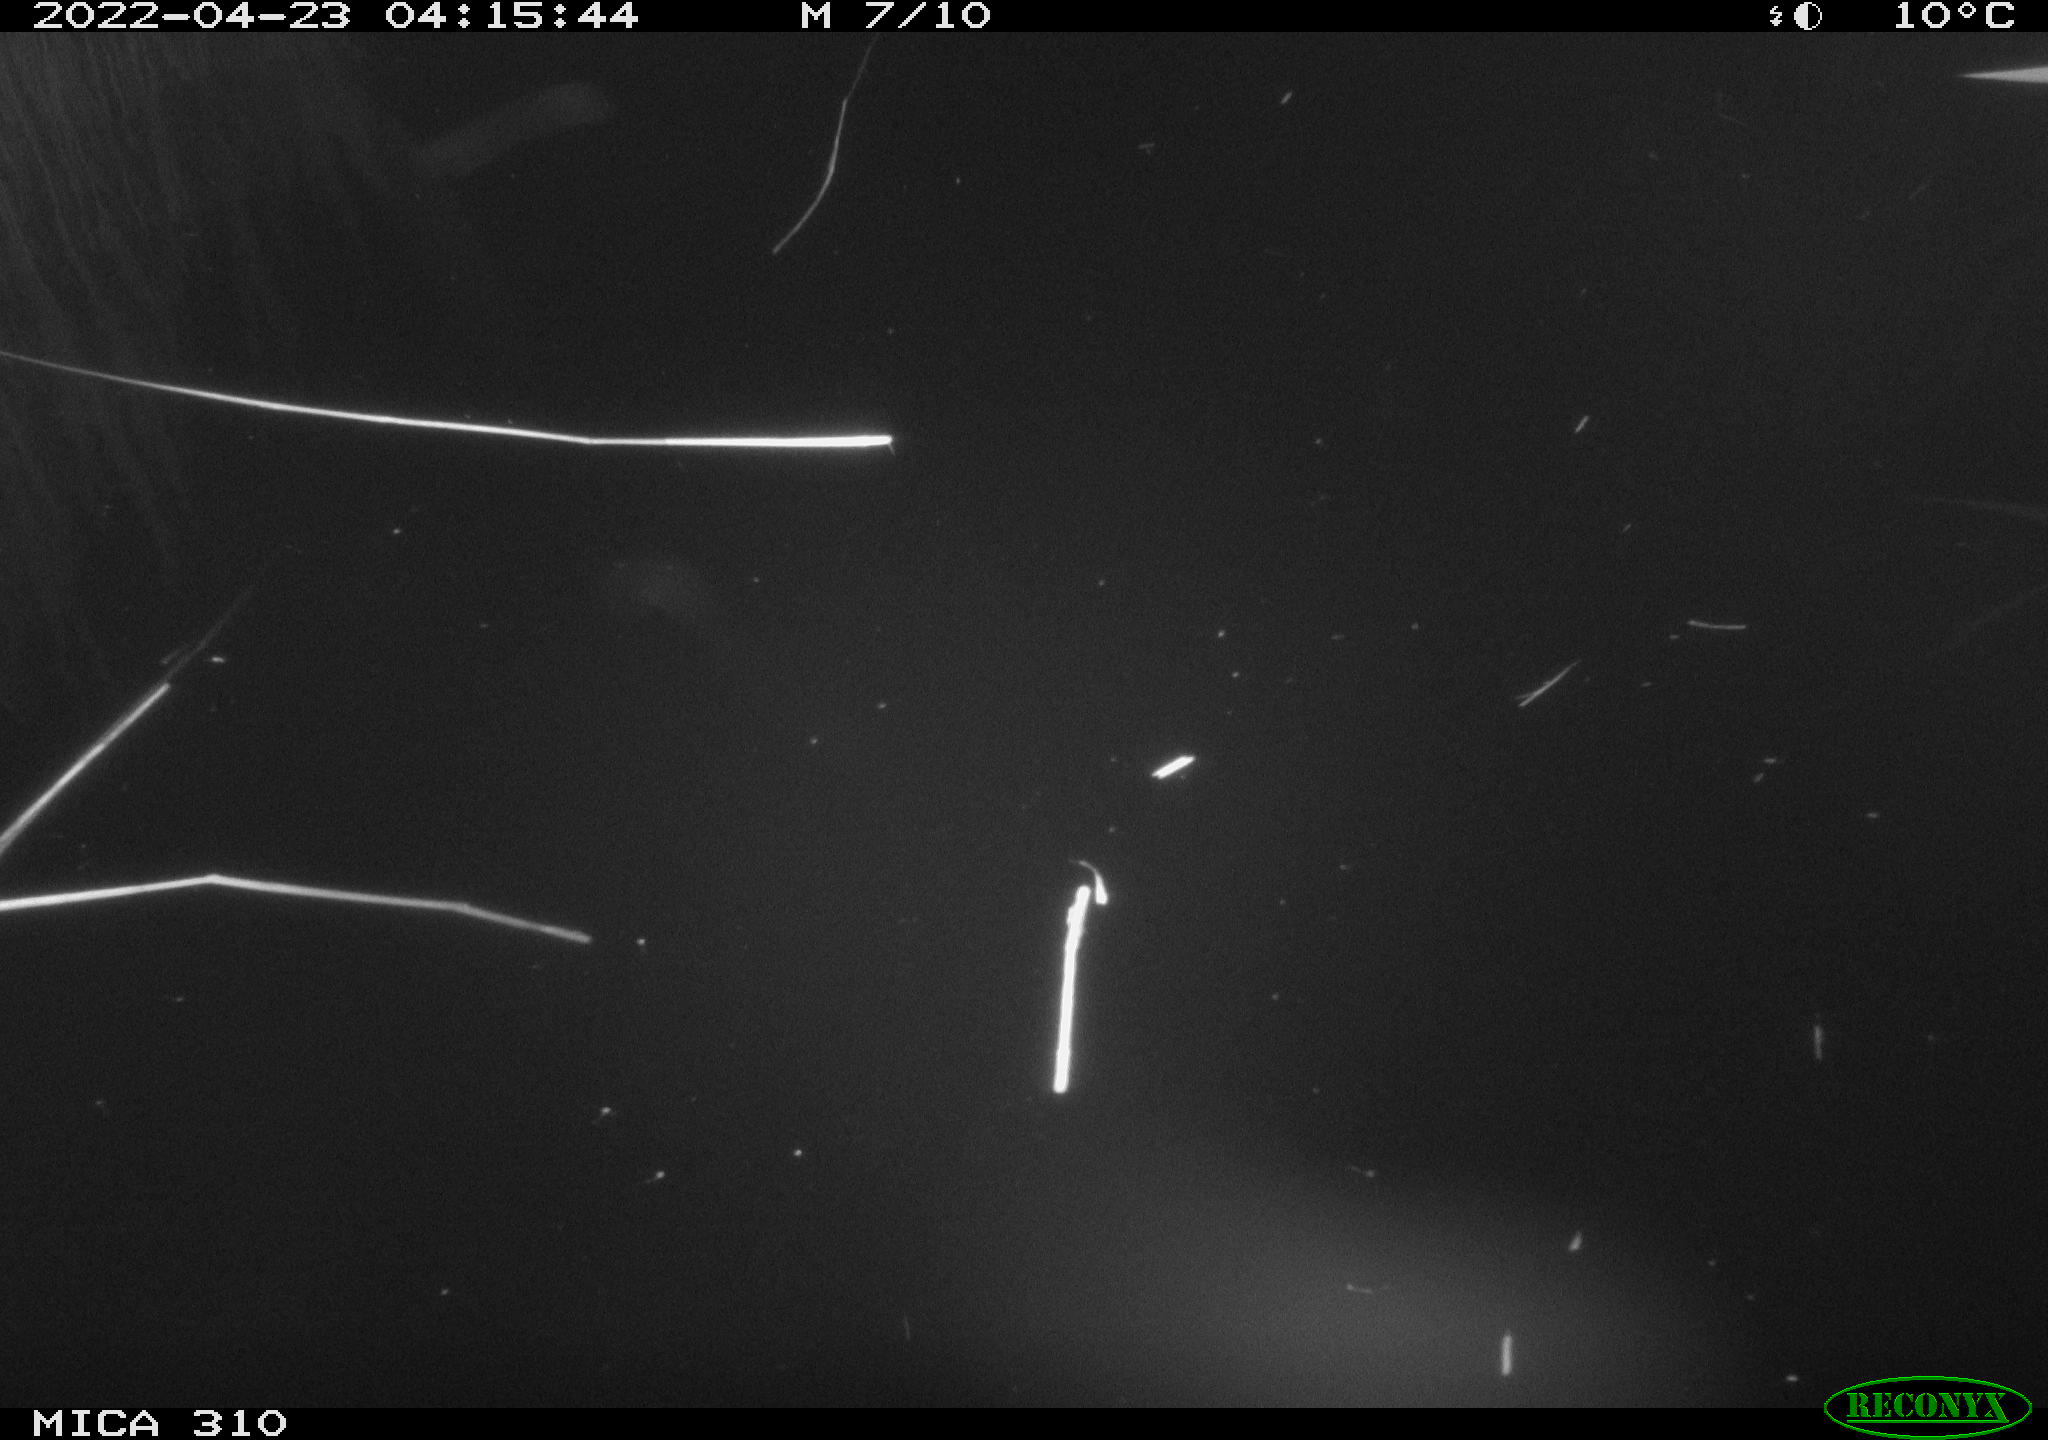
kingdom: Animalia
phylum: Chordata
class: Aves
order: Anseriformes
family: Anatidae
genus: Anas
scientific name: Anas platyrhynchos
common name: Mallard
